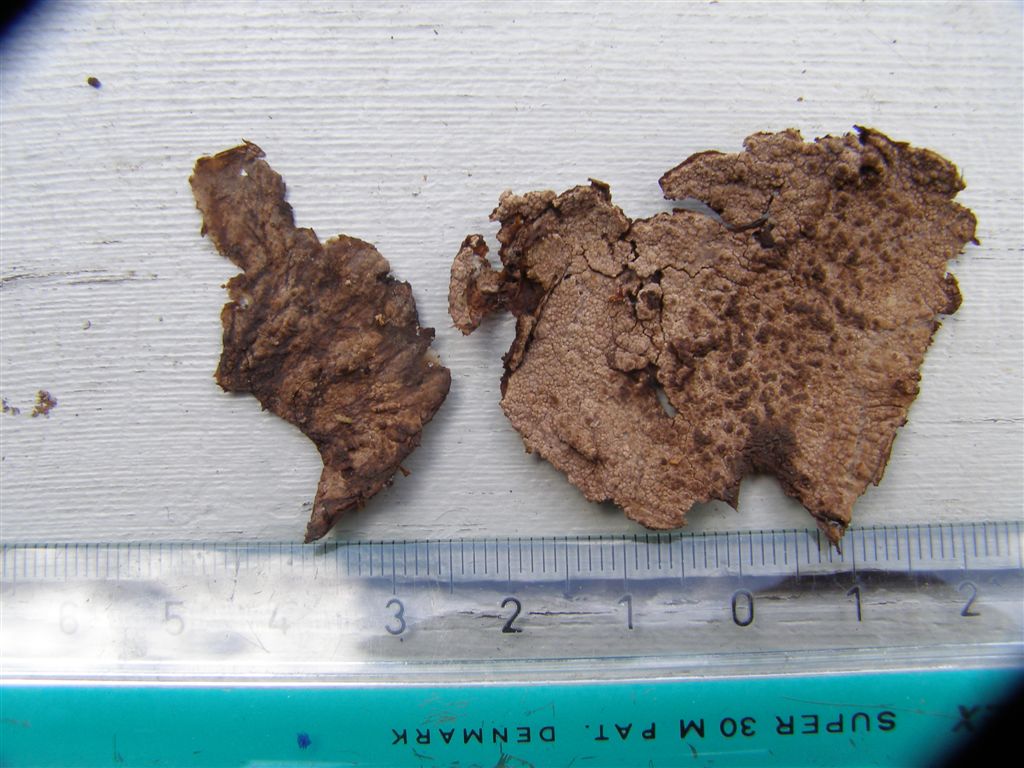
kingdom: Fungi
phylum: Basidiomycota
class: Agaricomycetes
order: Polyporales
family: Irpicaceae
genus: Crystallicutis
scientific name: Crystallicutis serpens
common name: gråviolet barkhinde
